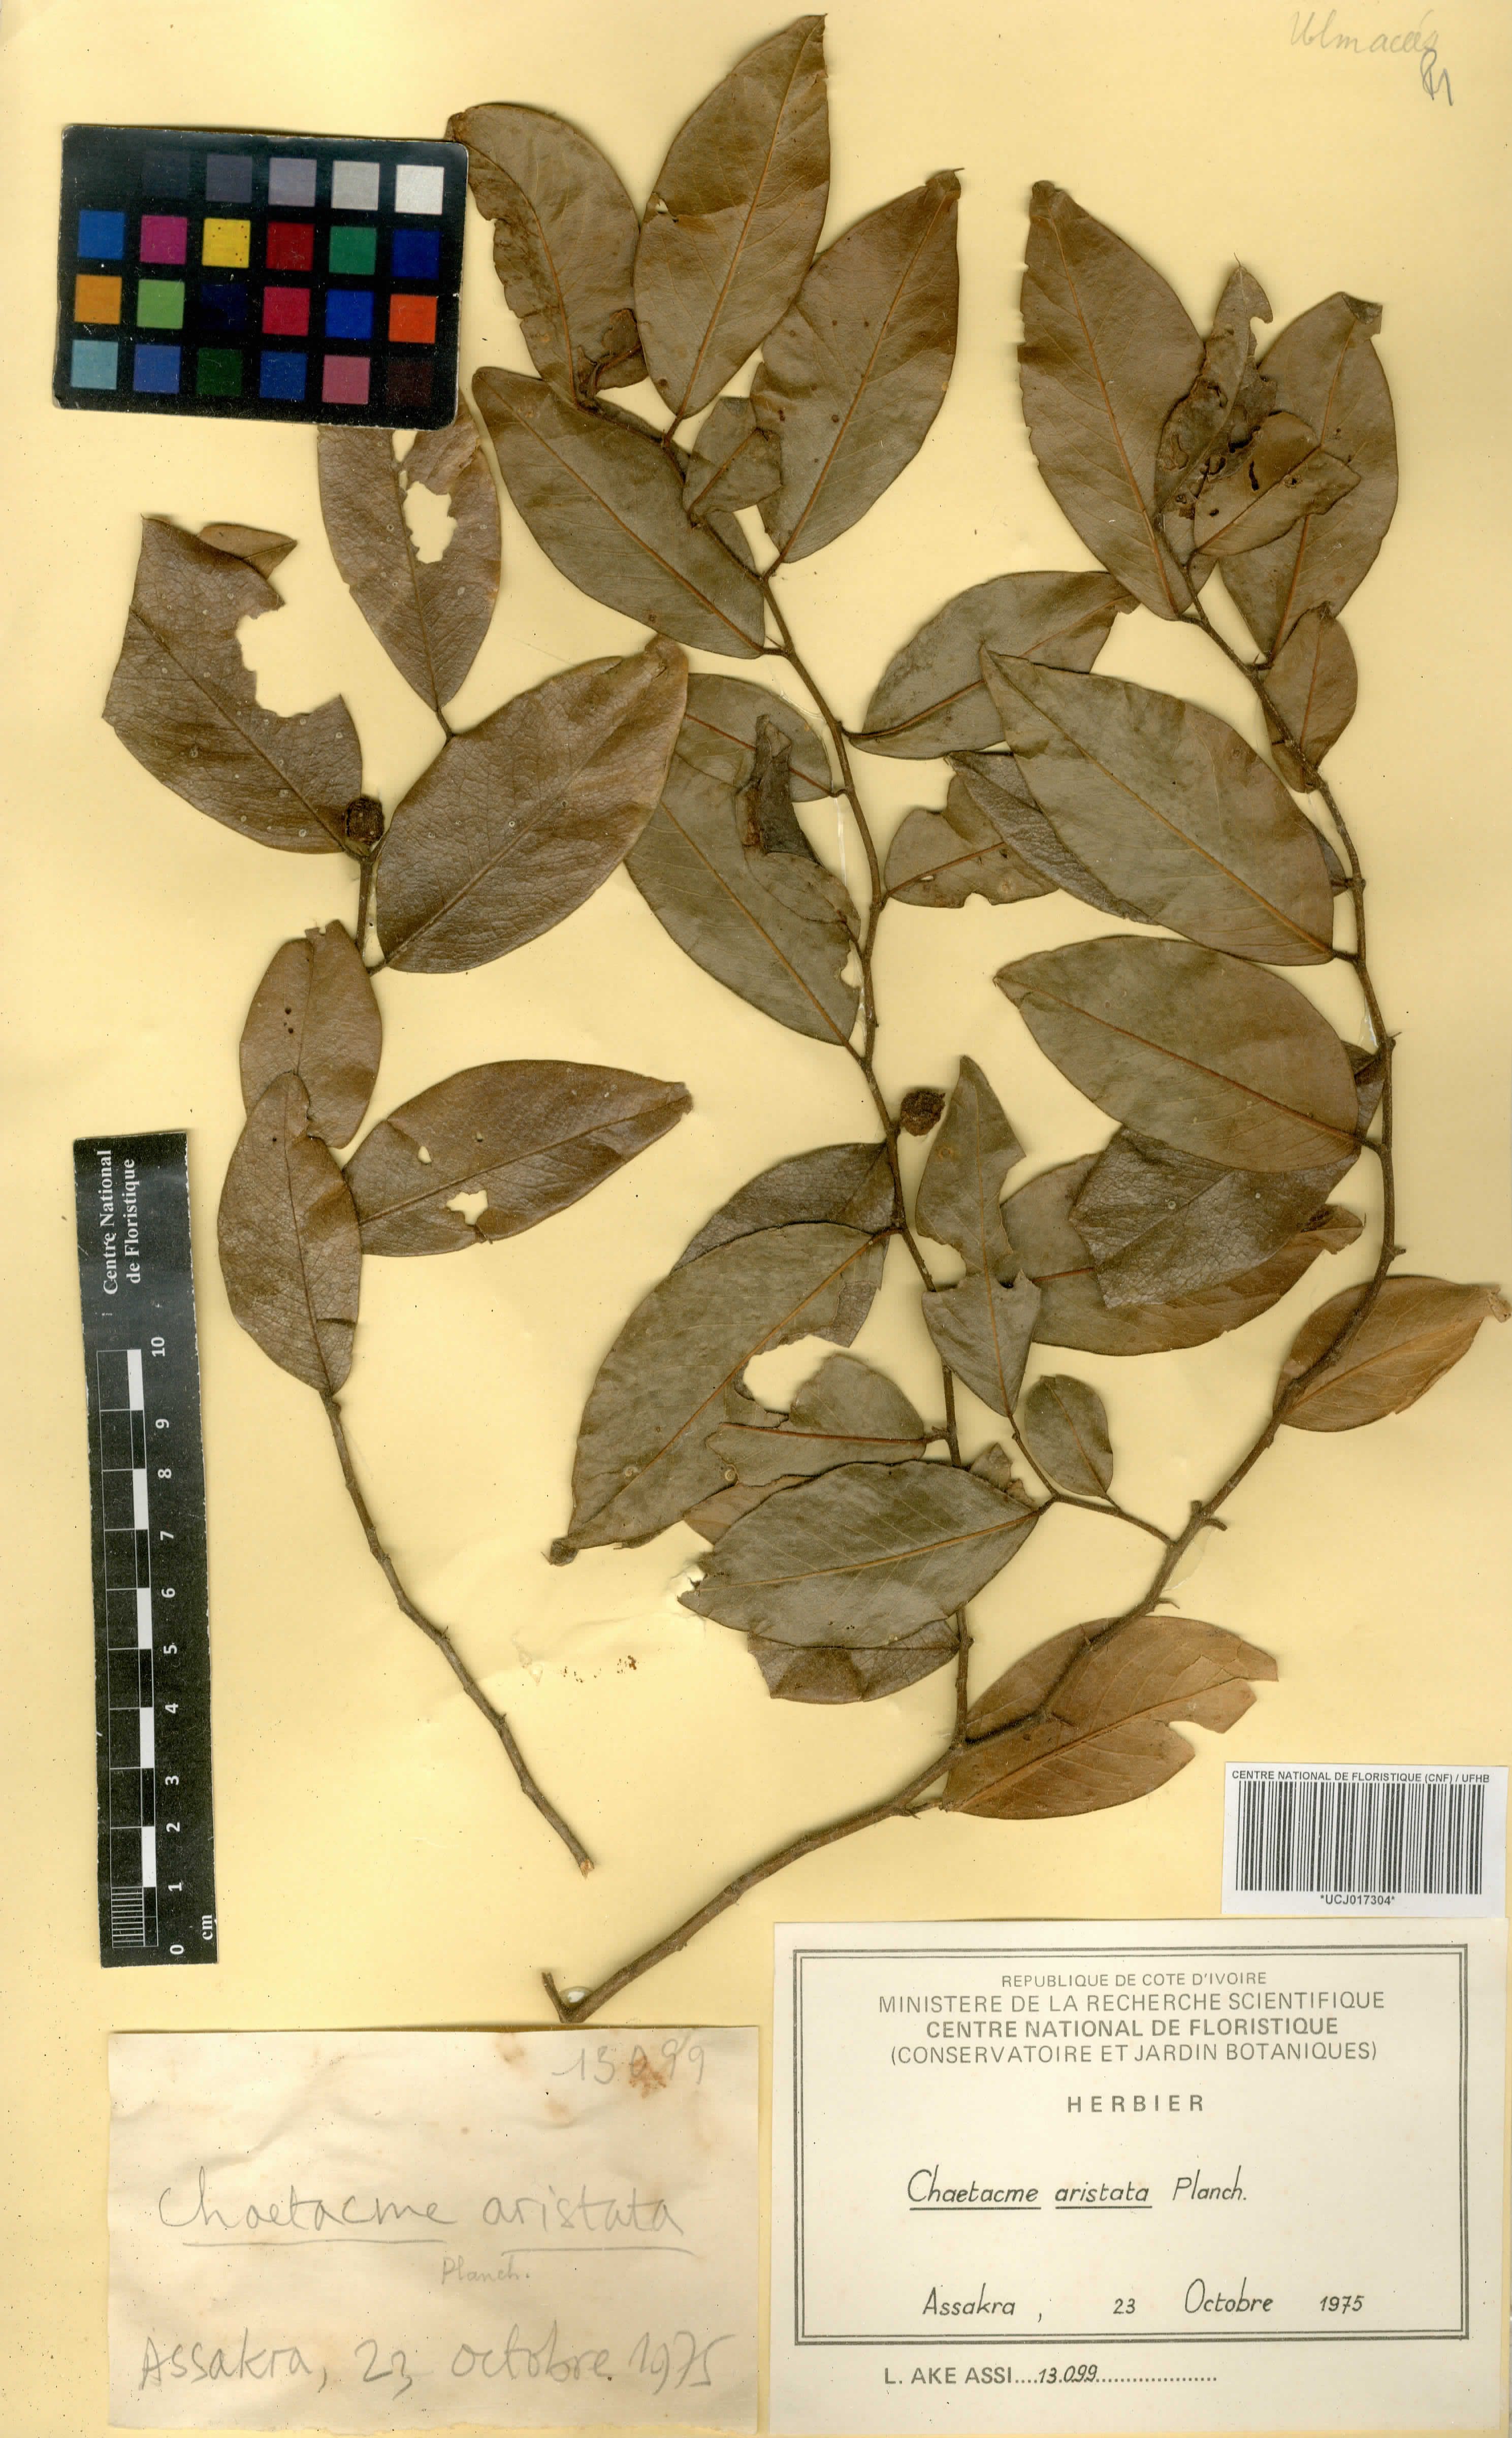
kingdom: Plantae
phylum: Tracheophyta
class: Magnoliopsida
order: Rosales
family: Cannabaceae
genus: Chaetachme
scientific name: Chaetachme aristata
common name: Thorny elm
